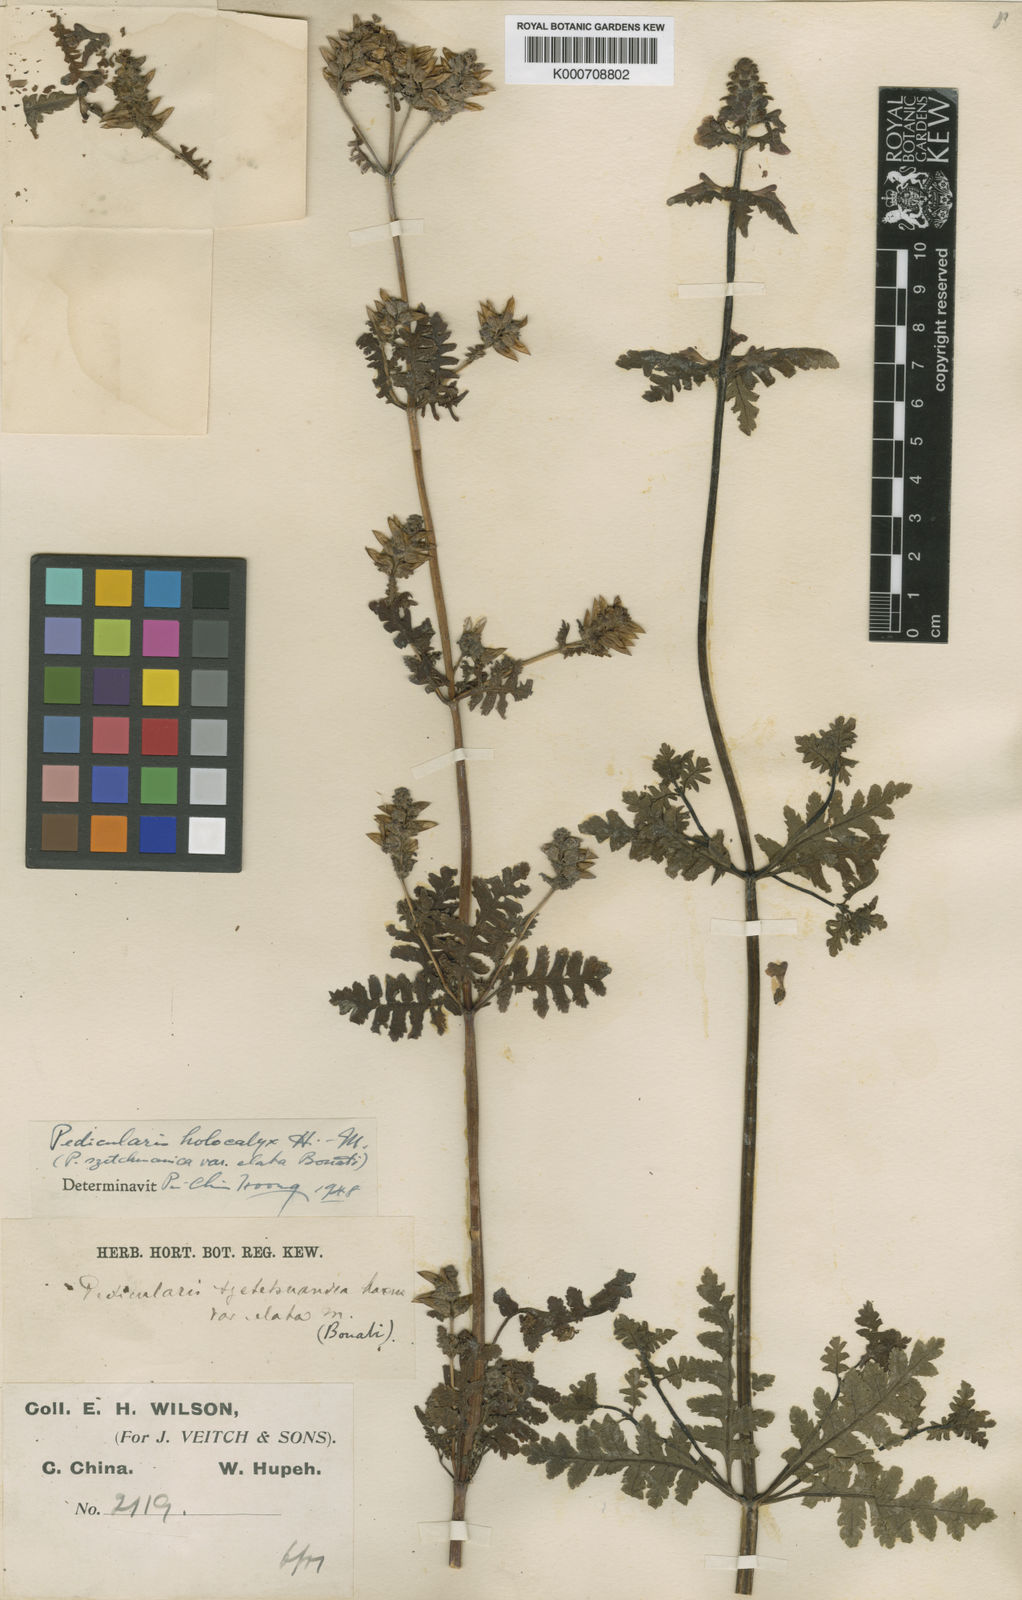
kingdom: Plantae
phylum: Tracheophyta
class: Magnoliopsida
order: Lamiales
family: Orobanchaceae
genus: Pedicularis
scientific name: Pedicularis holocalyx
